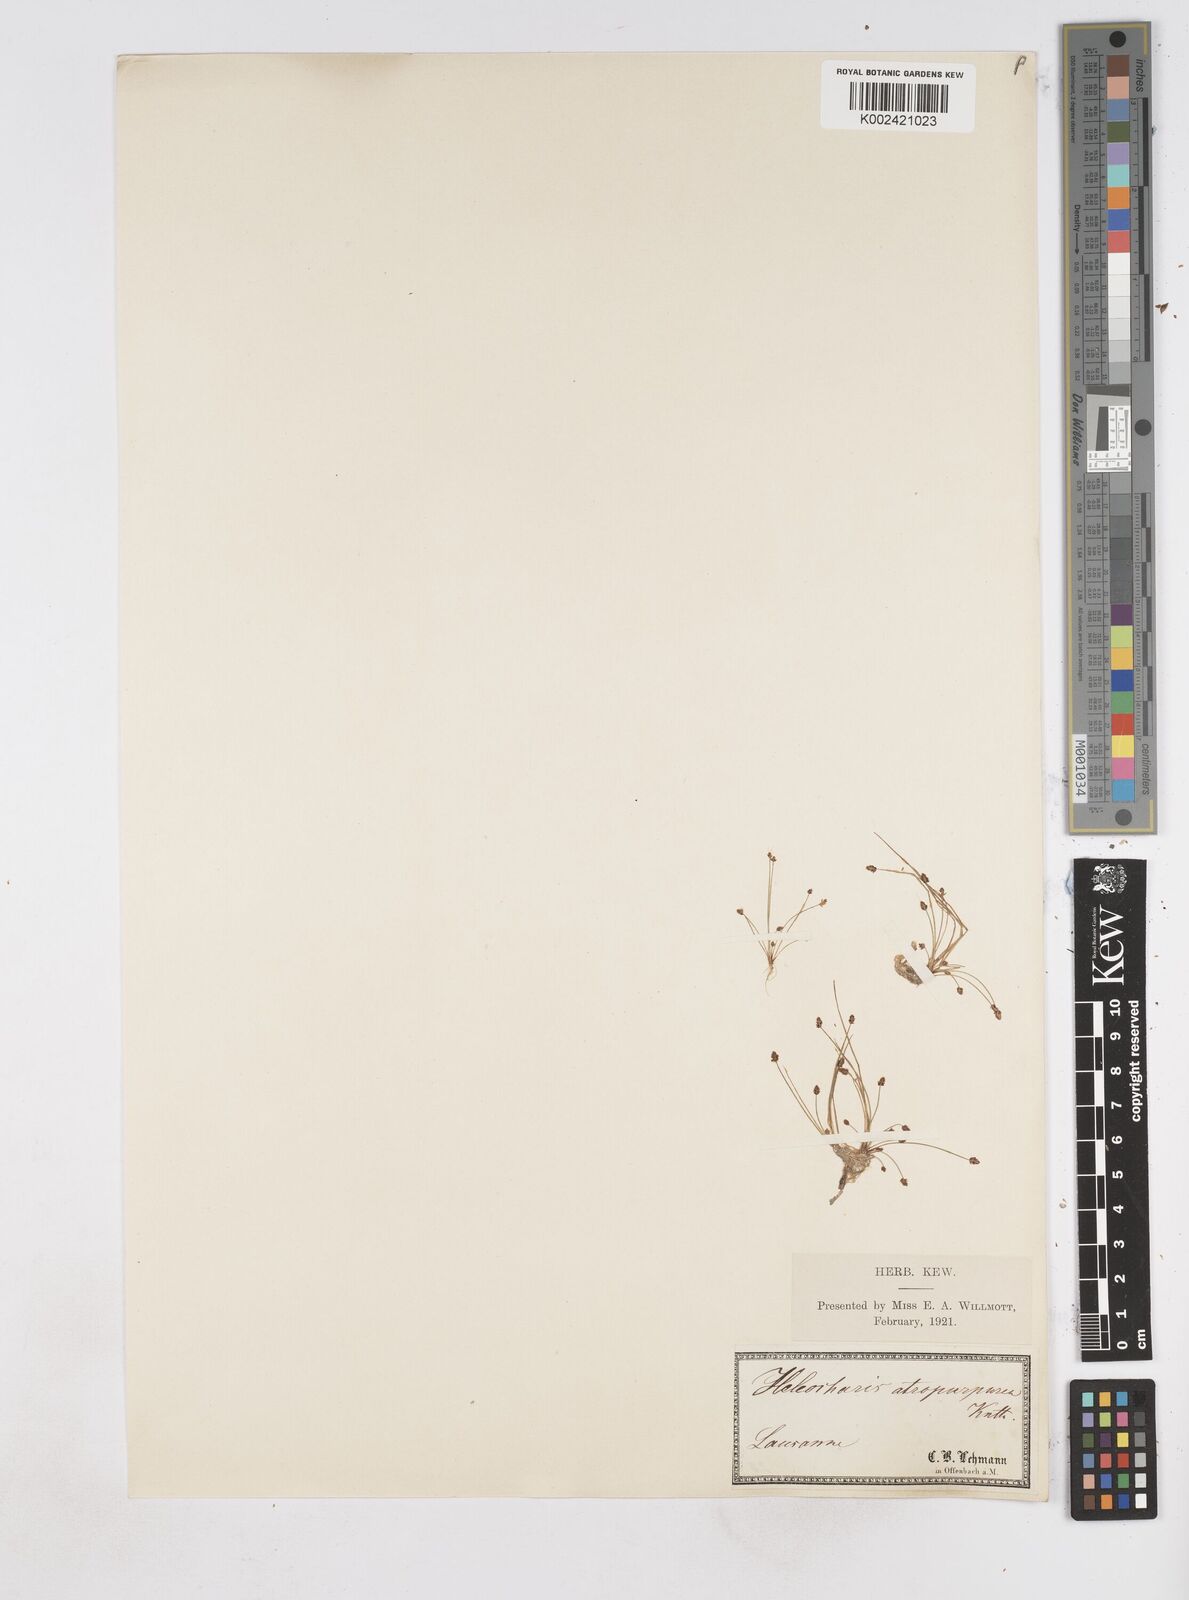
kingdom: Plantae
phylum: Tracheophyta
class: Liliopsida
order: Poales
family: Cyperaceae
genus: Eleocharis
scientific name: Eleocharis atropurpurea
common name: Purple spikerush
